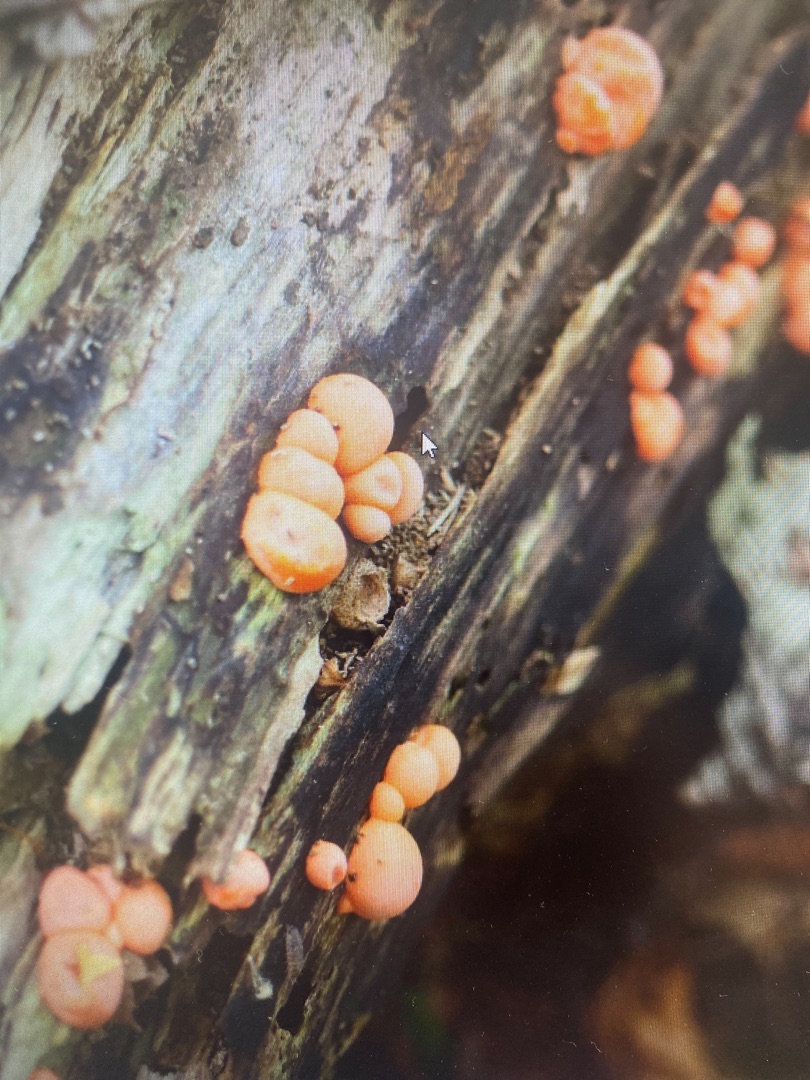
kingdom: Protozoa
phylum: Mycetozoa
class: Myxomycetes
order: Cribrariales
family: Tubiferaceae
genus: Lycogala
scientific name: Lycogala epidendrum
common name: Almindelig rødært
